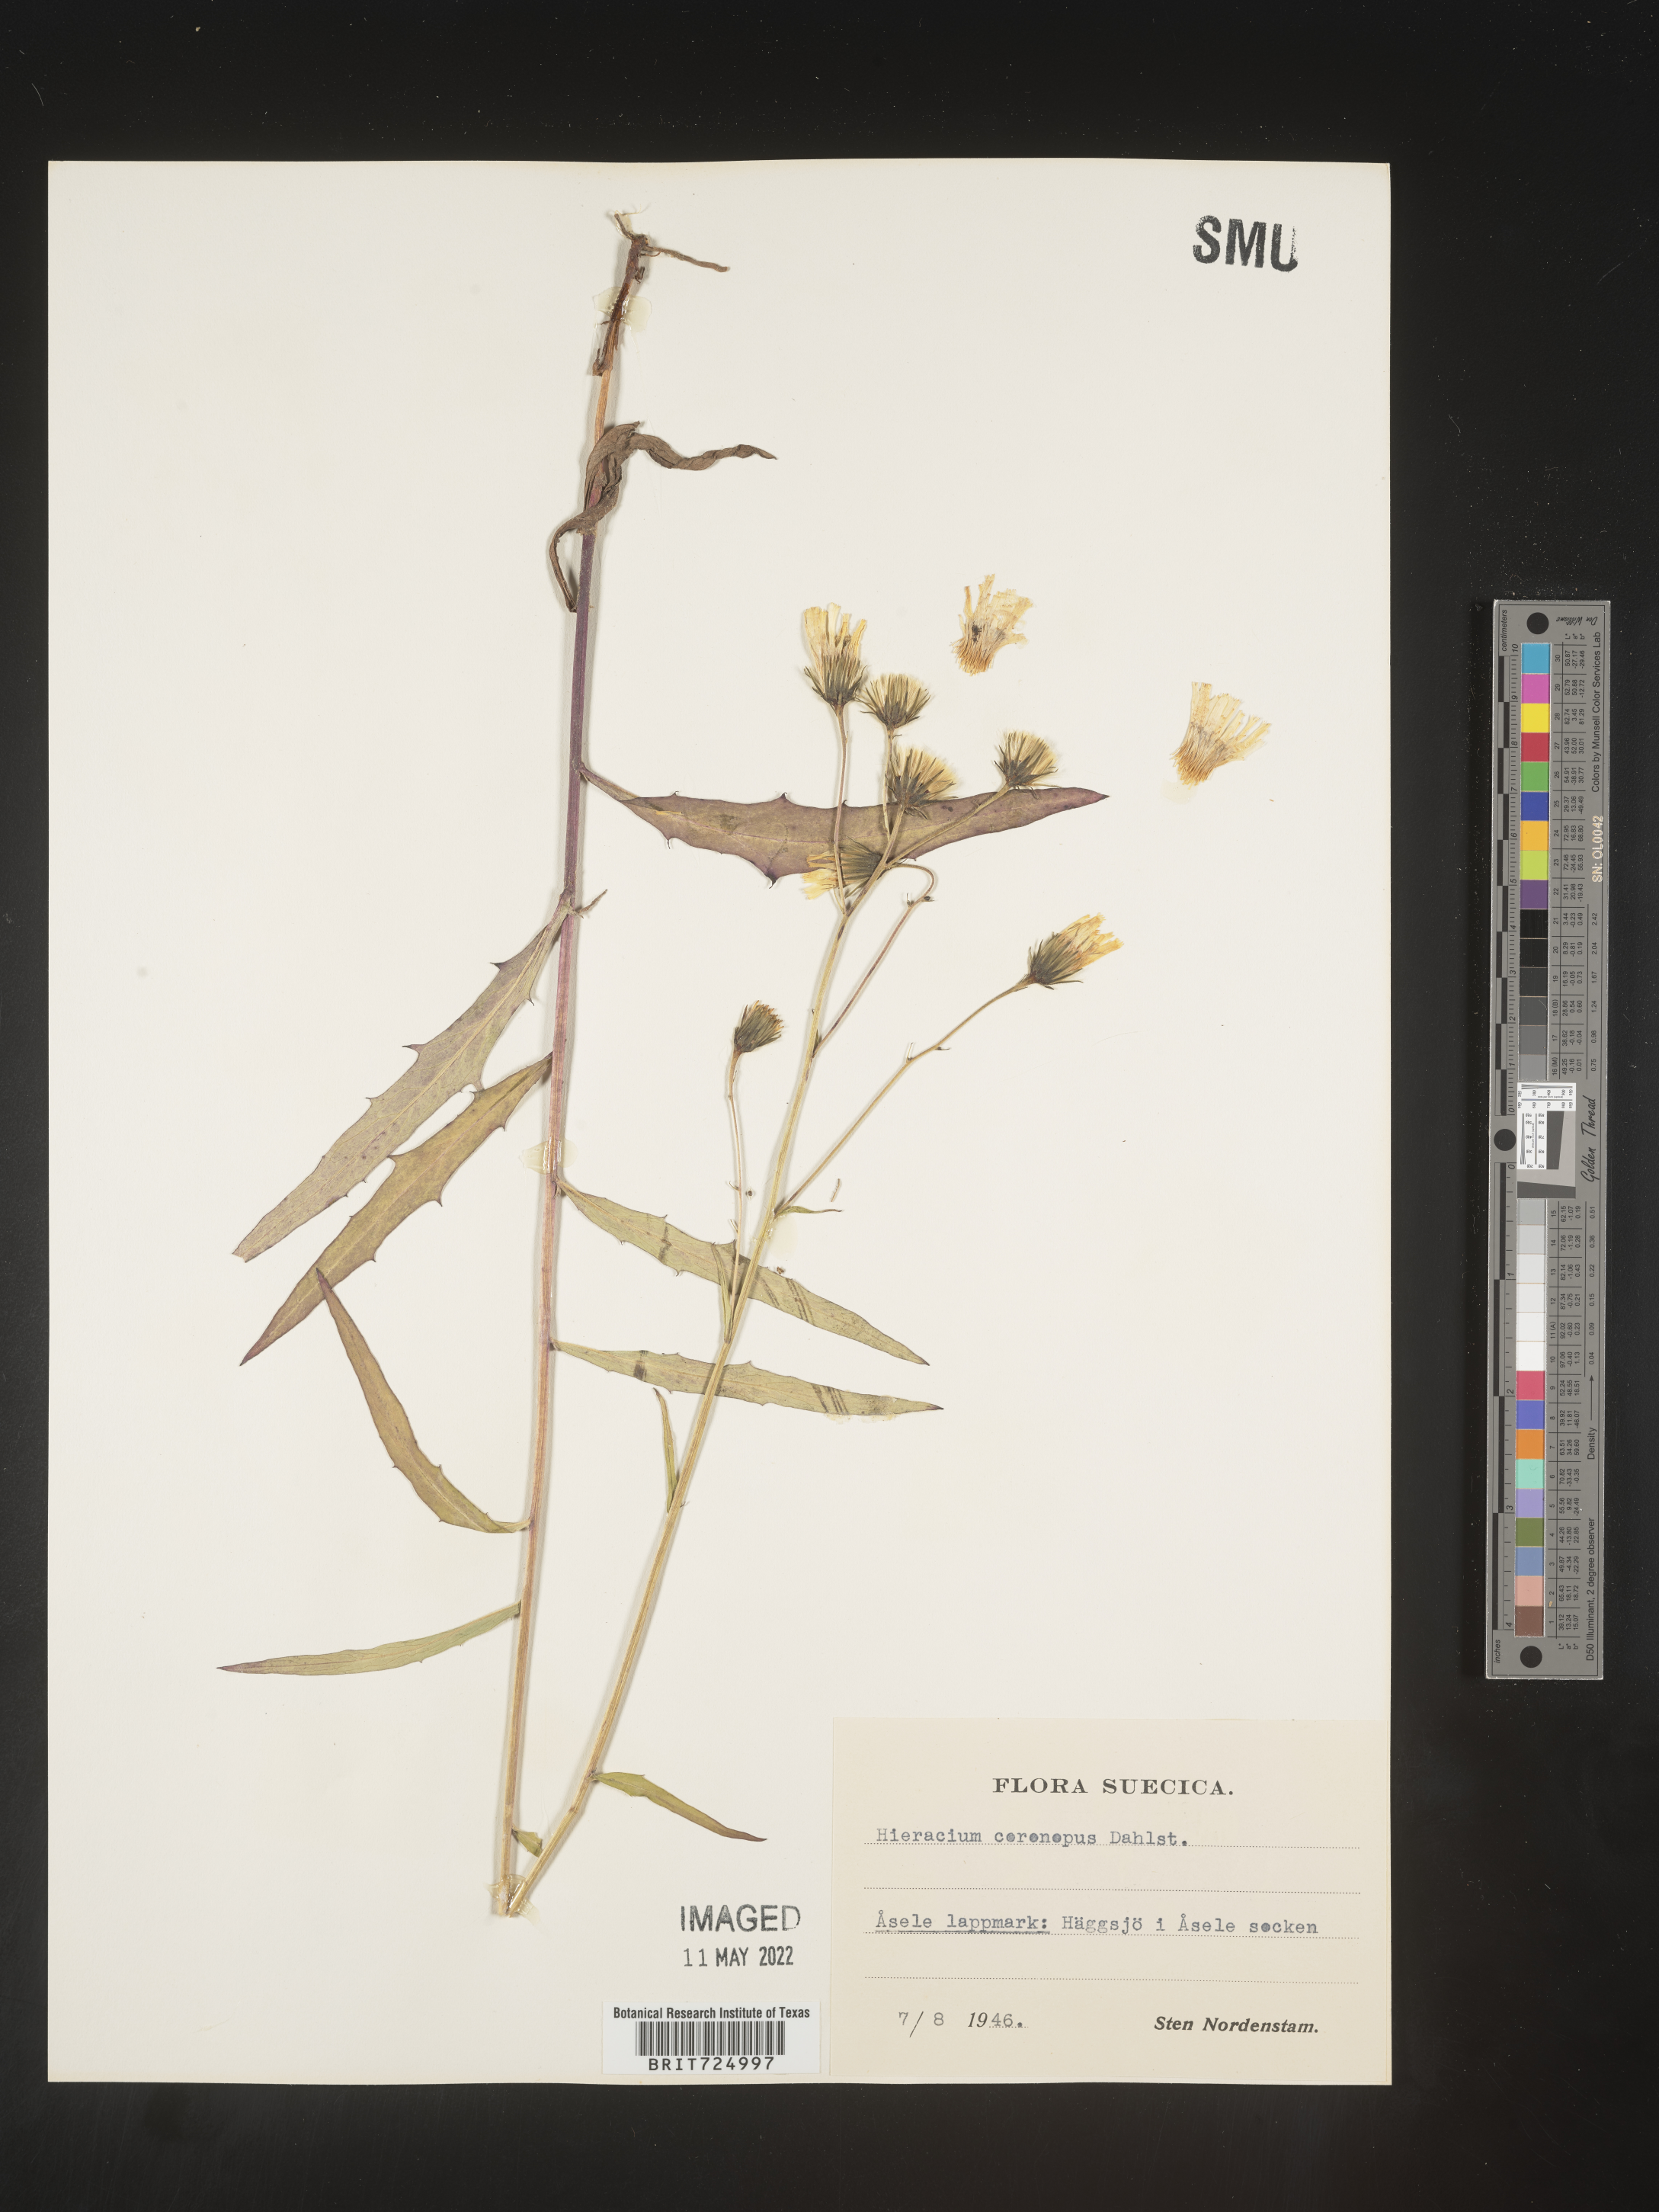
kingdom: Plantae
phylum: Tracheophyta
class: Magnoliopsida
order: Asterales
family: Asteraceae
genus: Hieracium
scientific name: Hieracium
